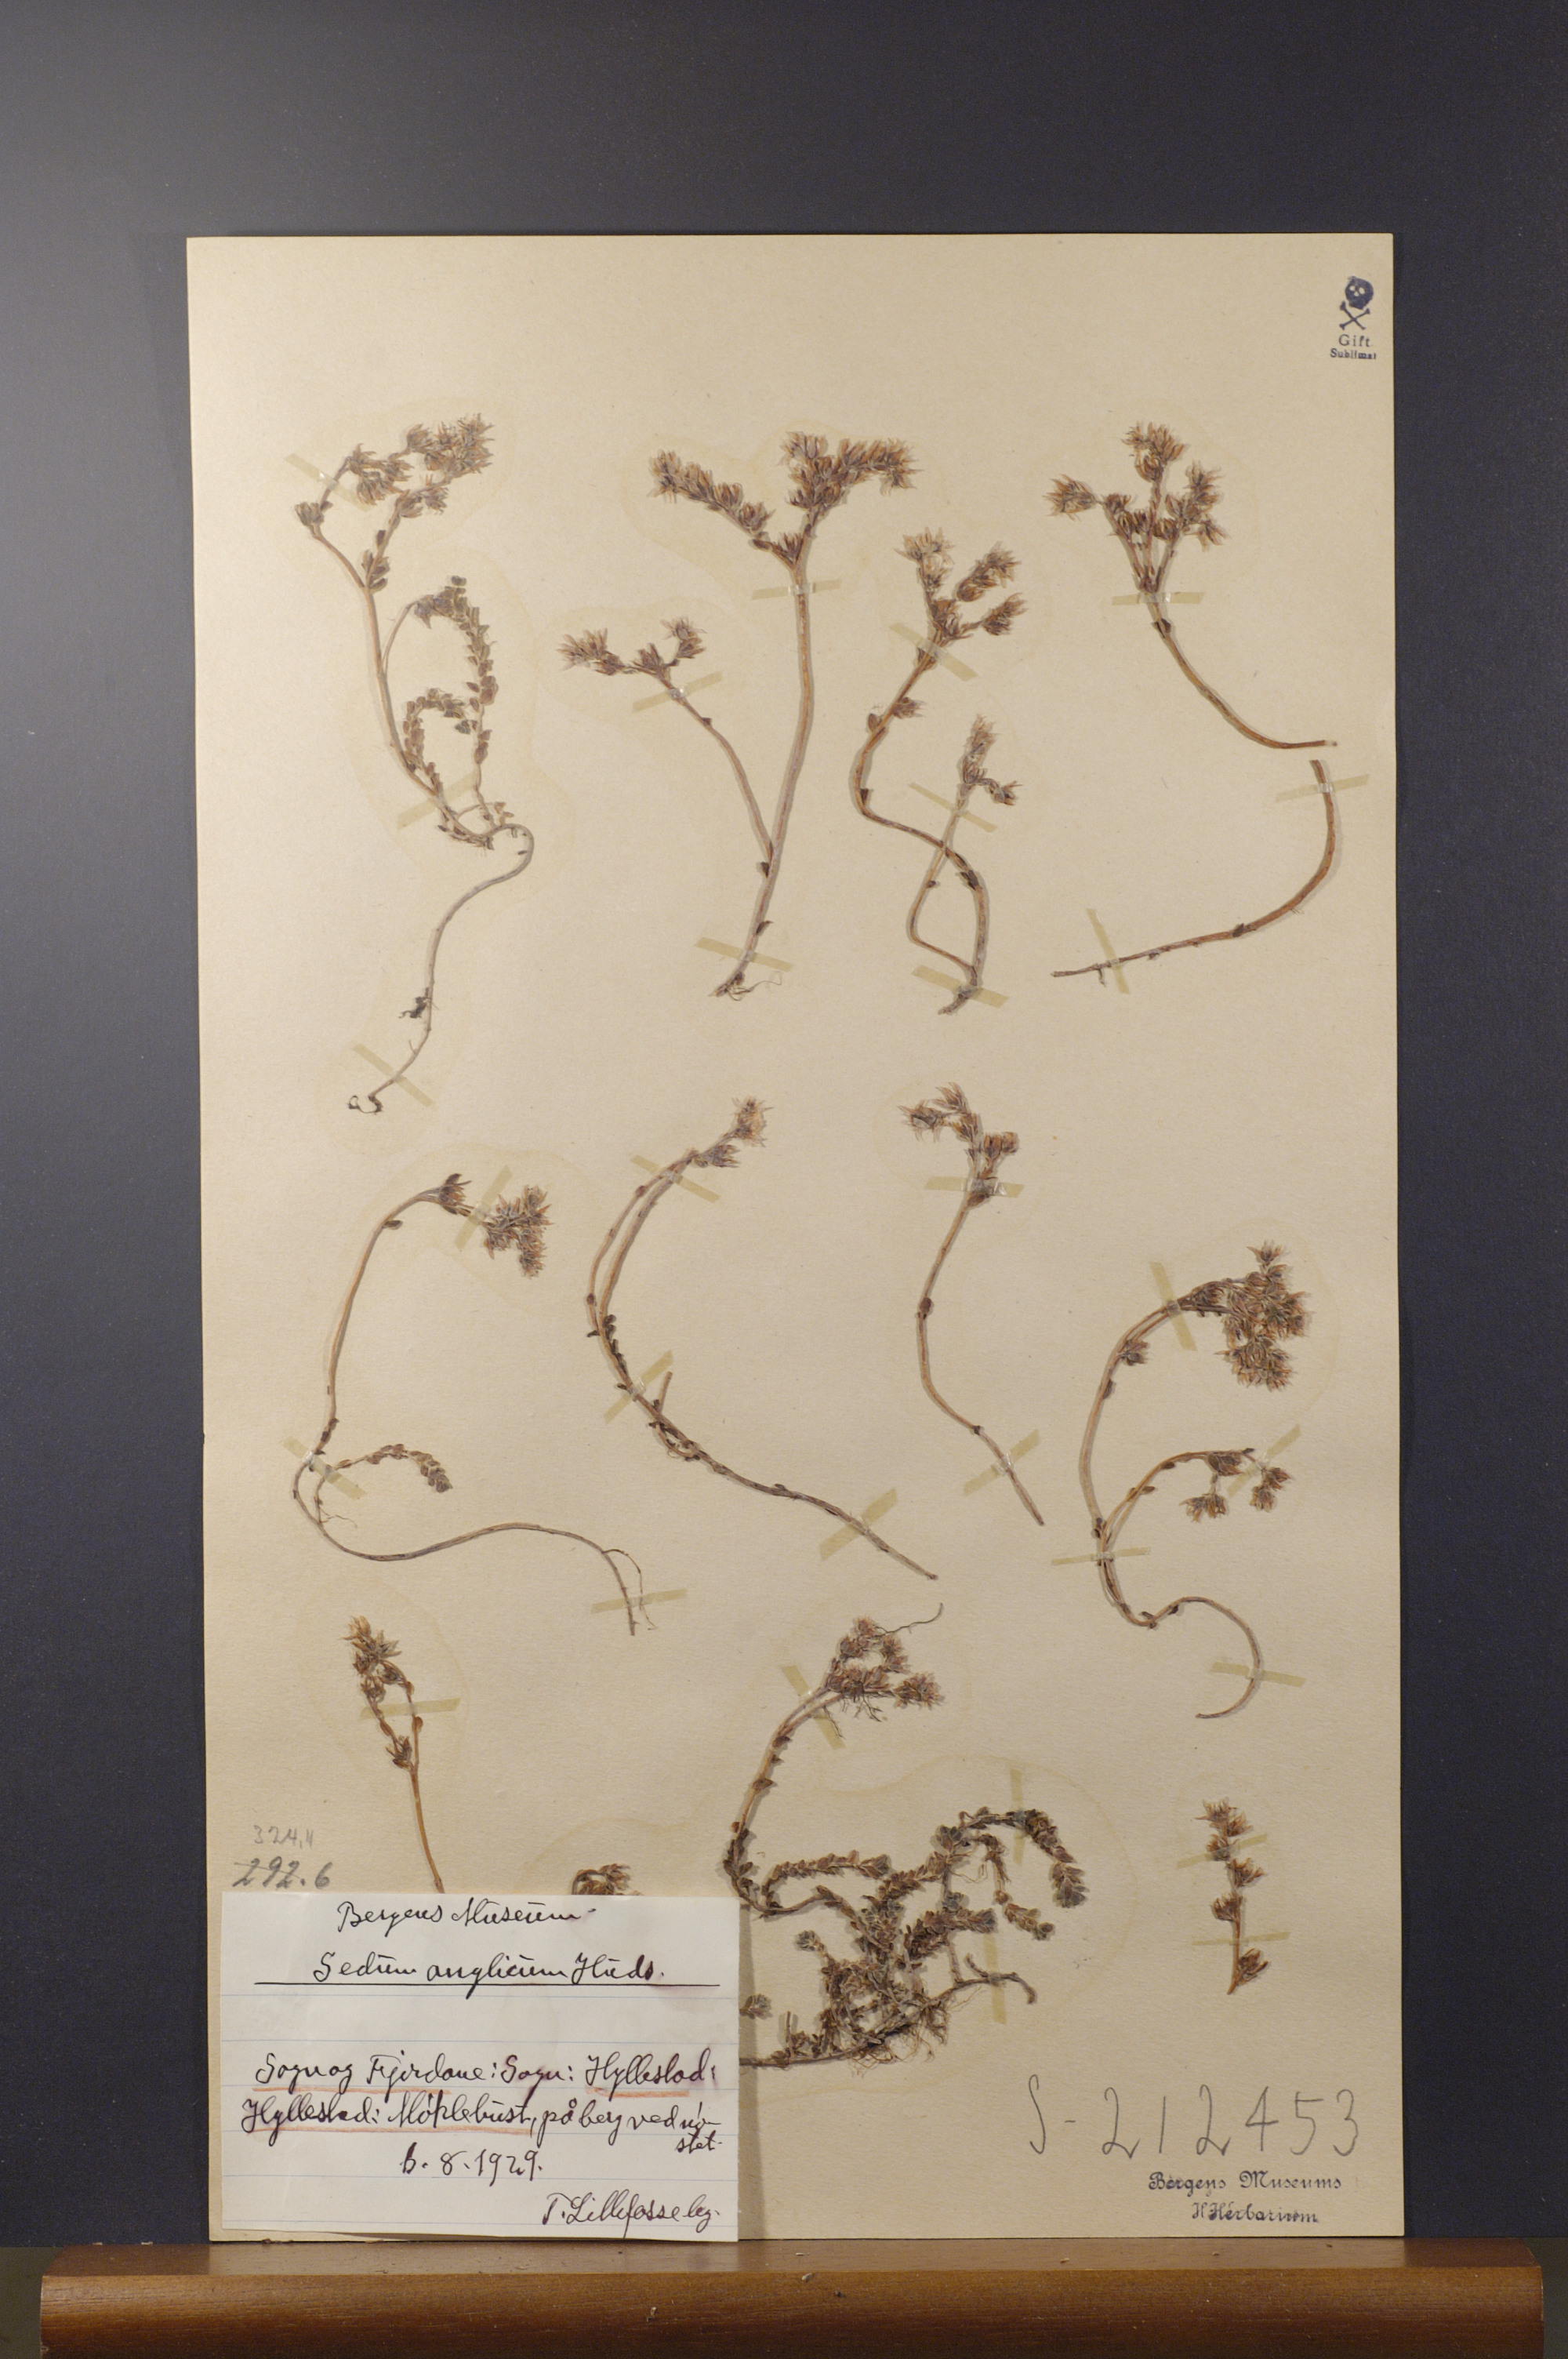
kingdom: Plantae
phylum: Tracheophyta
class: Magnoliopsida
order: Saxifragales
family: Crassulaceae
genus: Sedum
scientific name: Sedum anglicum
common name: English stonecrop
